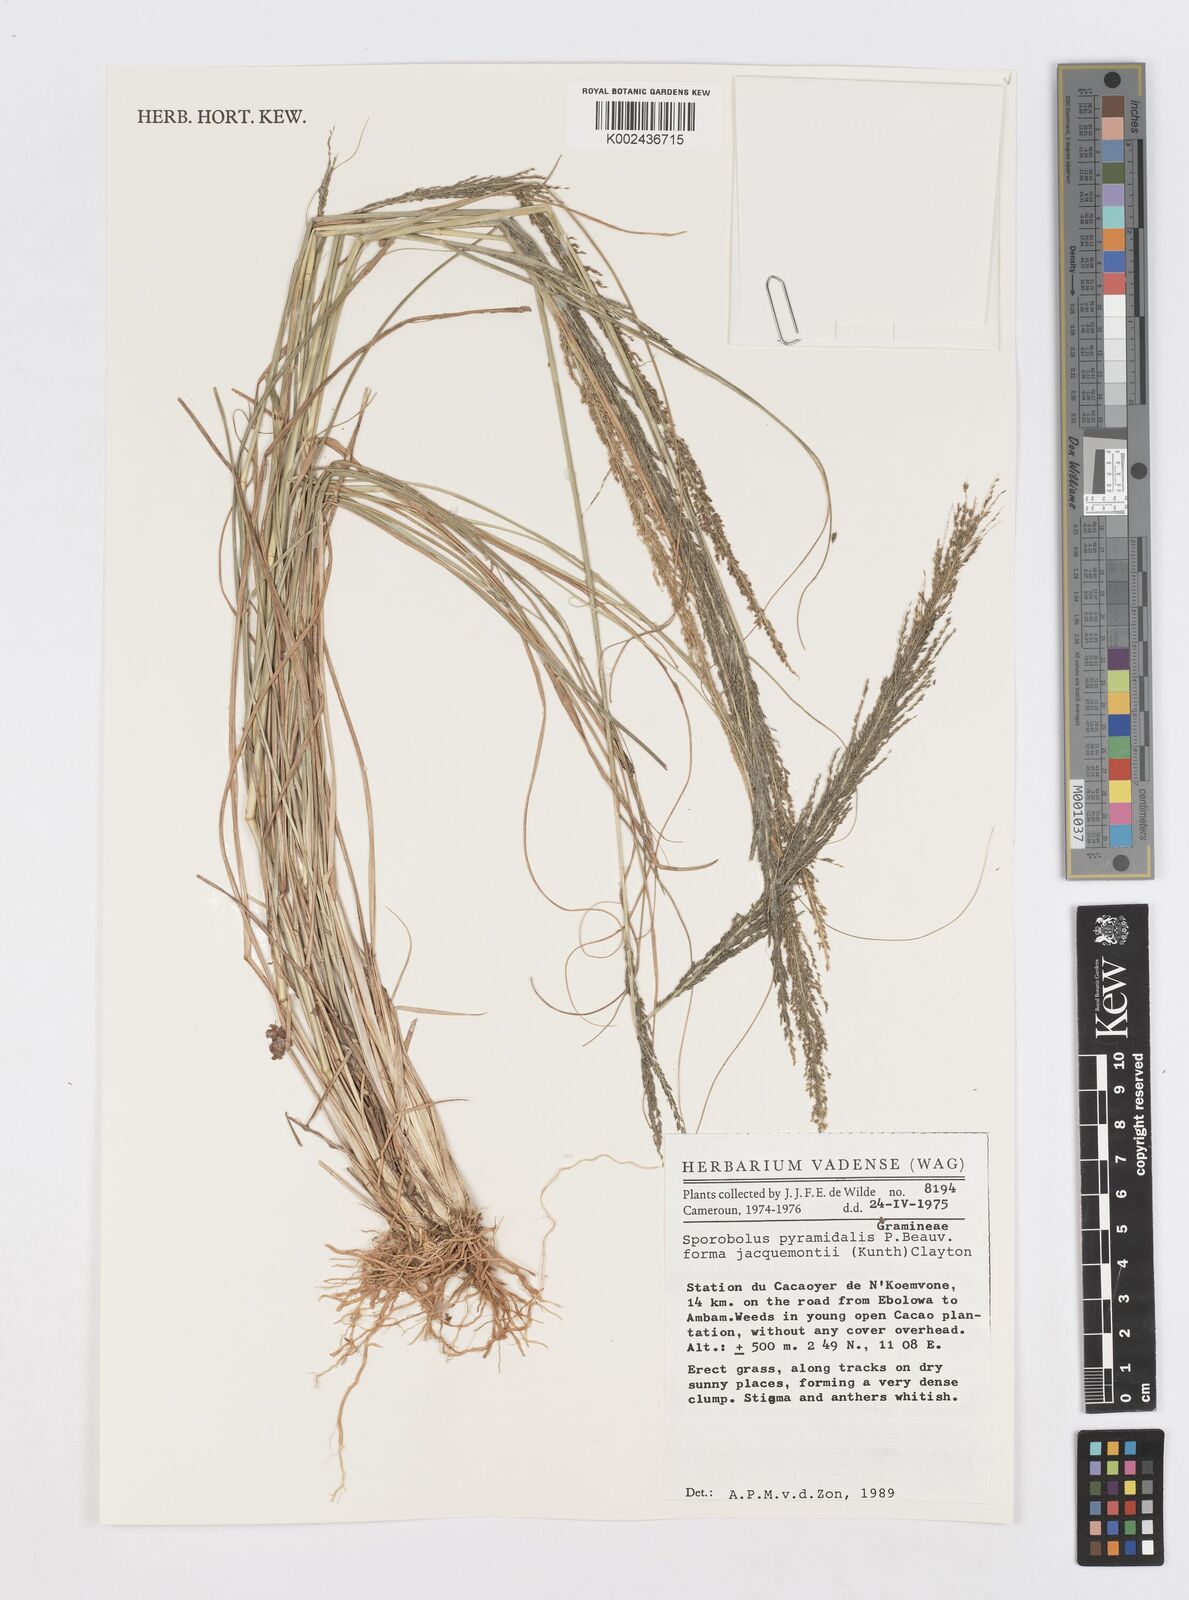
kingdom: Plantae
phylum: Tracheophyta
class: Liliopsida
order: Poales
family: Poaceae
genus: Sporobolus
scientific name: Sporobolus pyramidalis
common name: West indian dropseed
